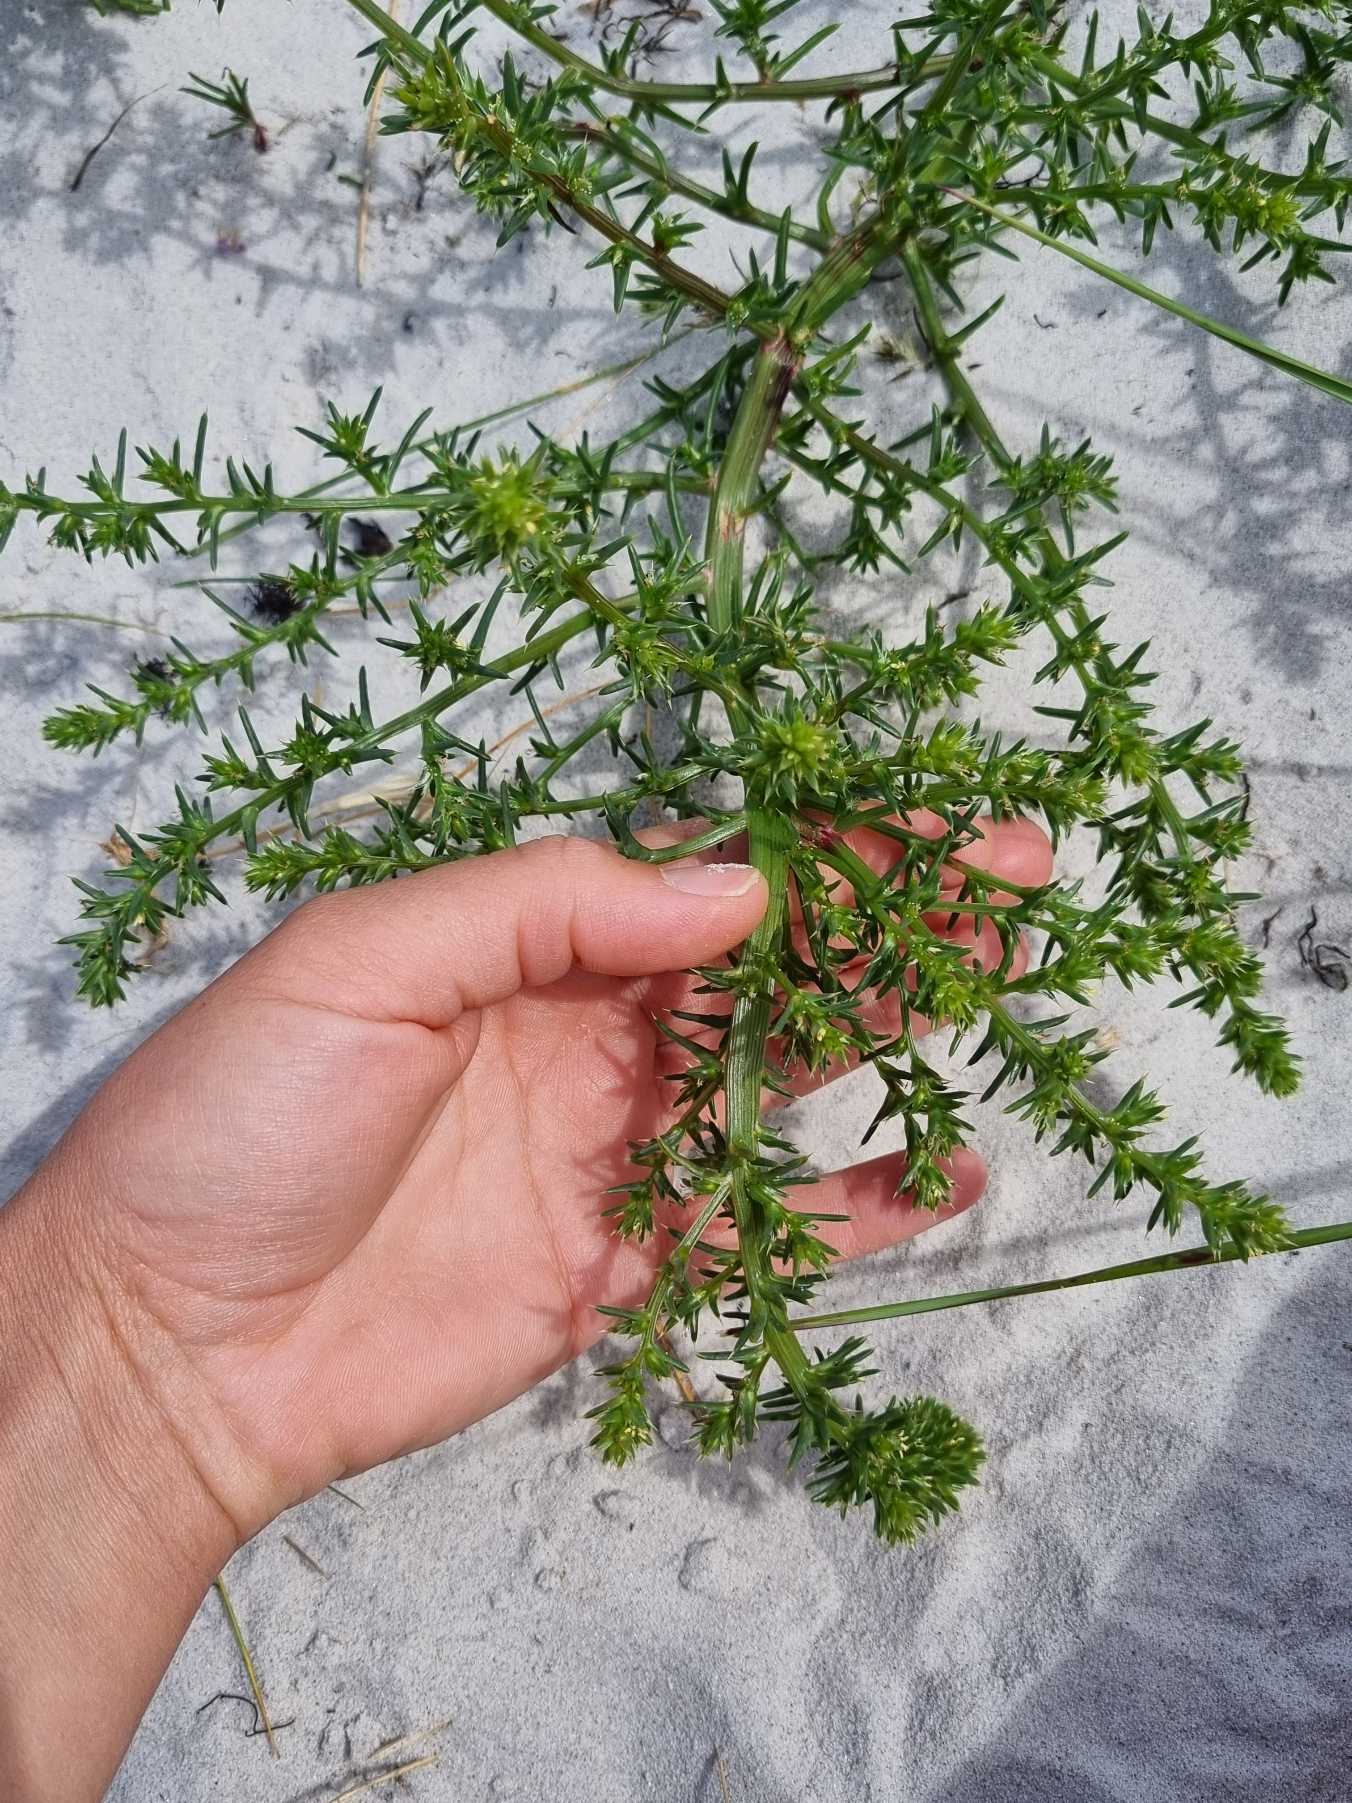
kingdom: Plantae
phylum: Tracheophyta
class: Magnoliopsida
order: Caryophyllales
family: Amaranthaceae
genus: Salsola
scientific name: Salsola kali
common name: Sodaurt
